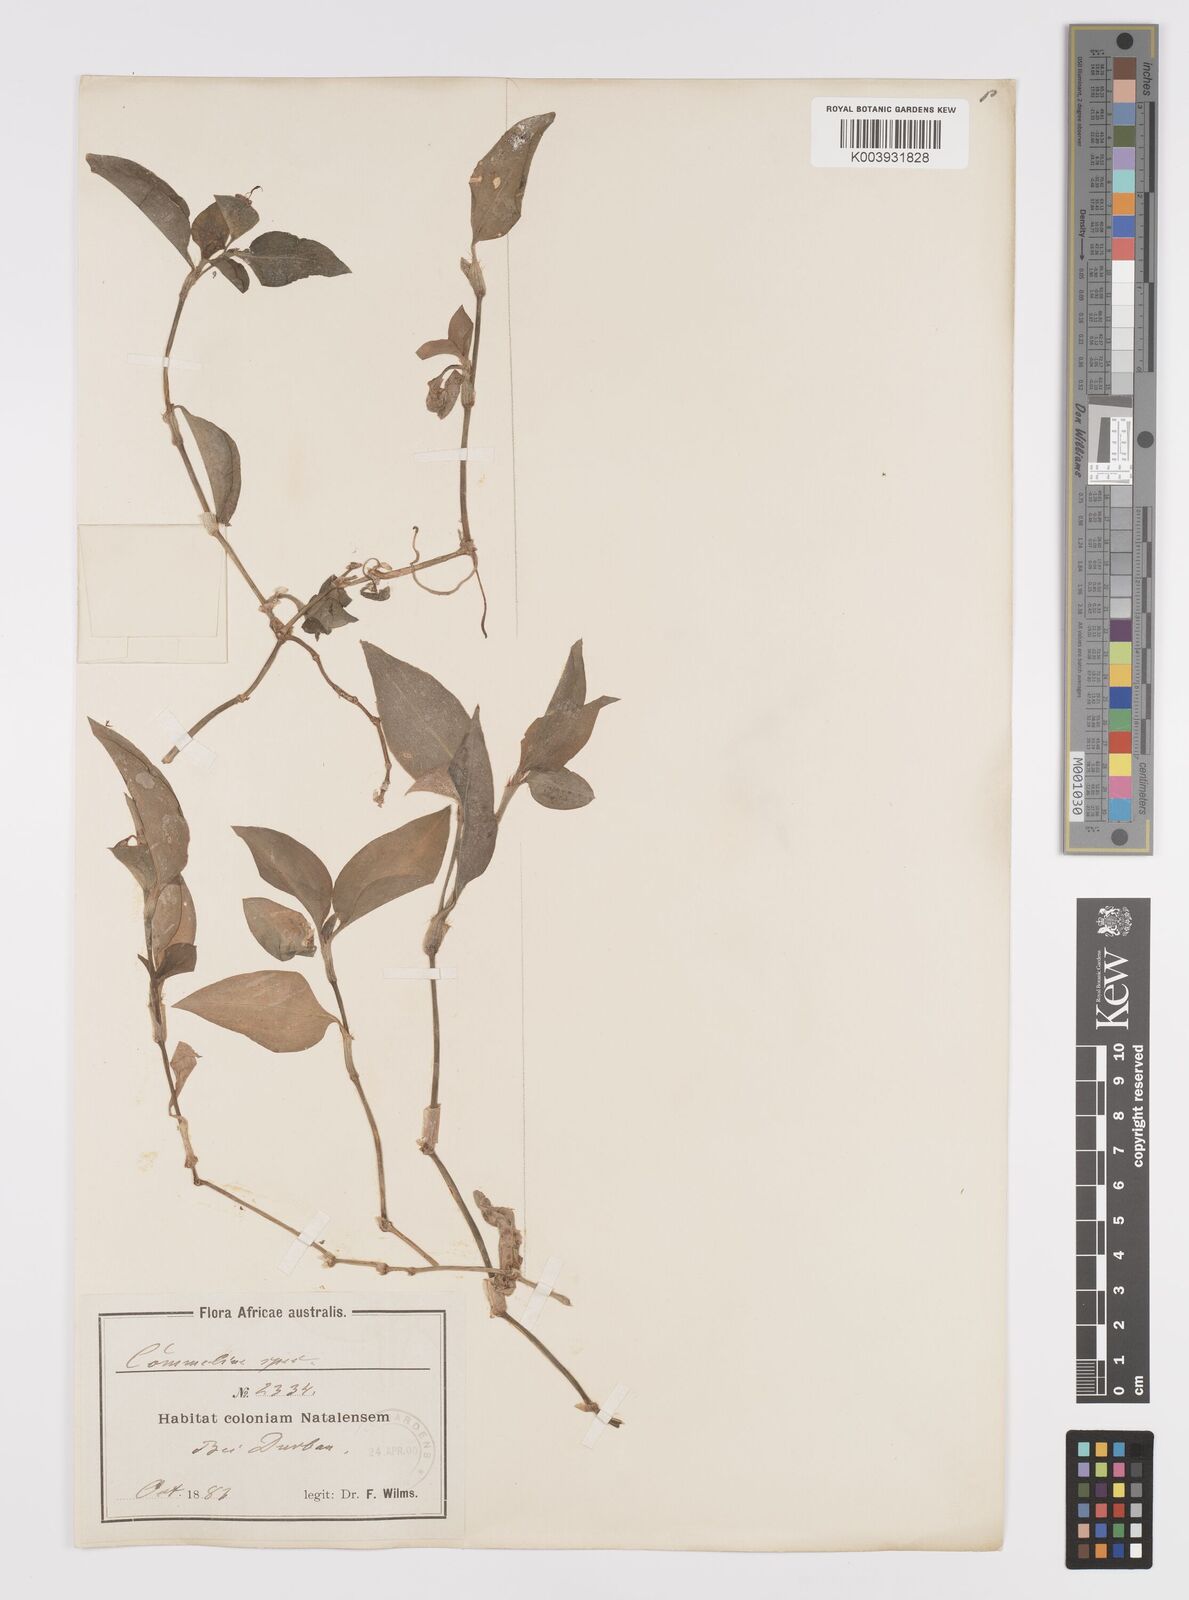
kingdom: Plantae
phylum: Tracheophyta
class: Liliopsida
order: Commelinales
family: Commelinaceae
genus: Commelina
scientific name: Commelina benghalensis
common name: Jio
